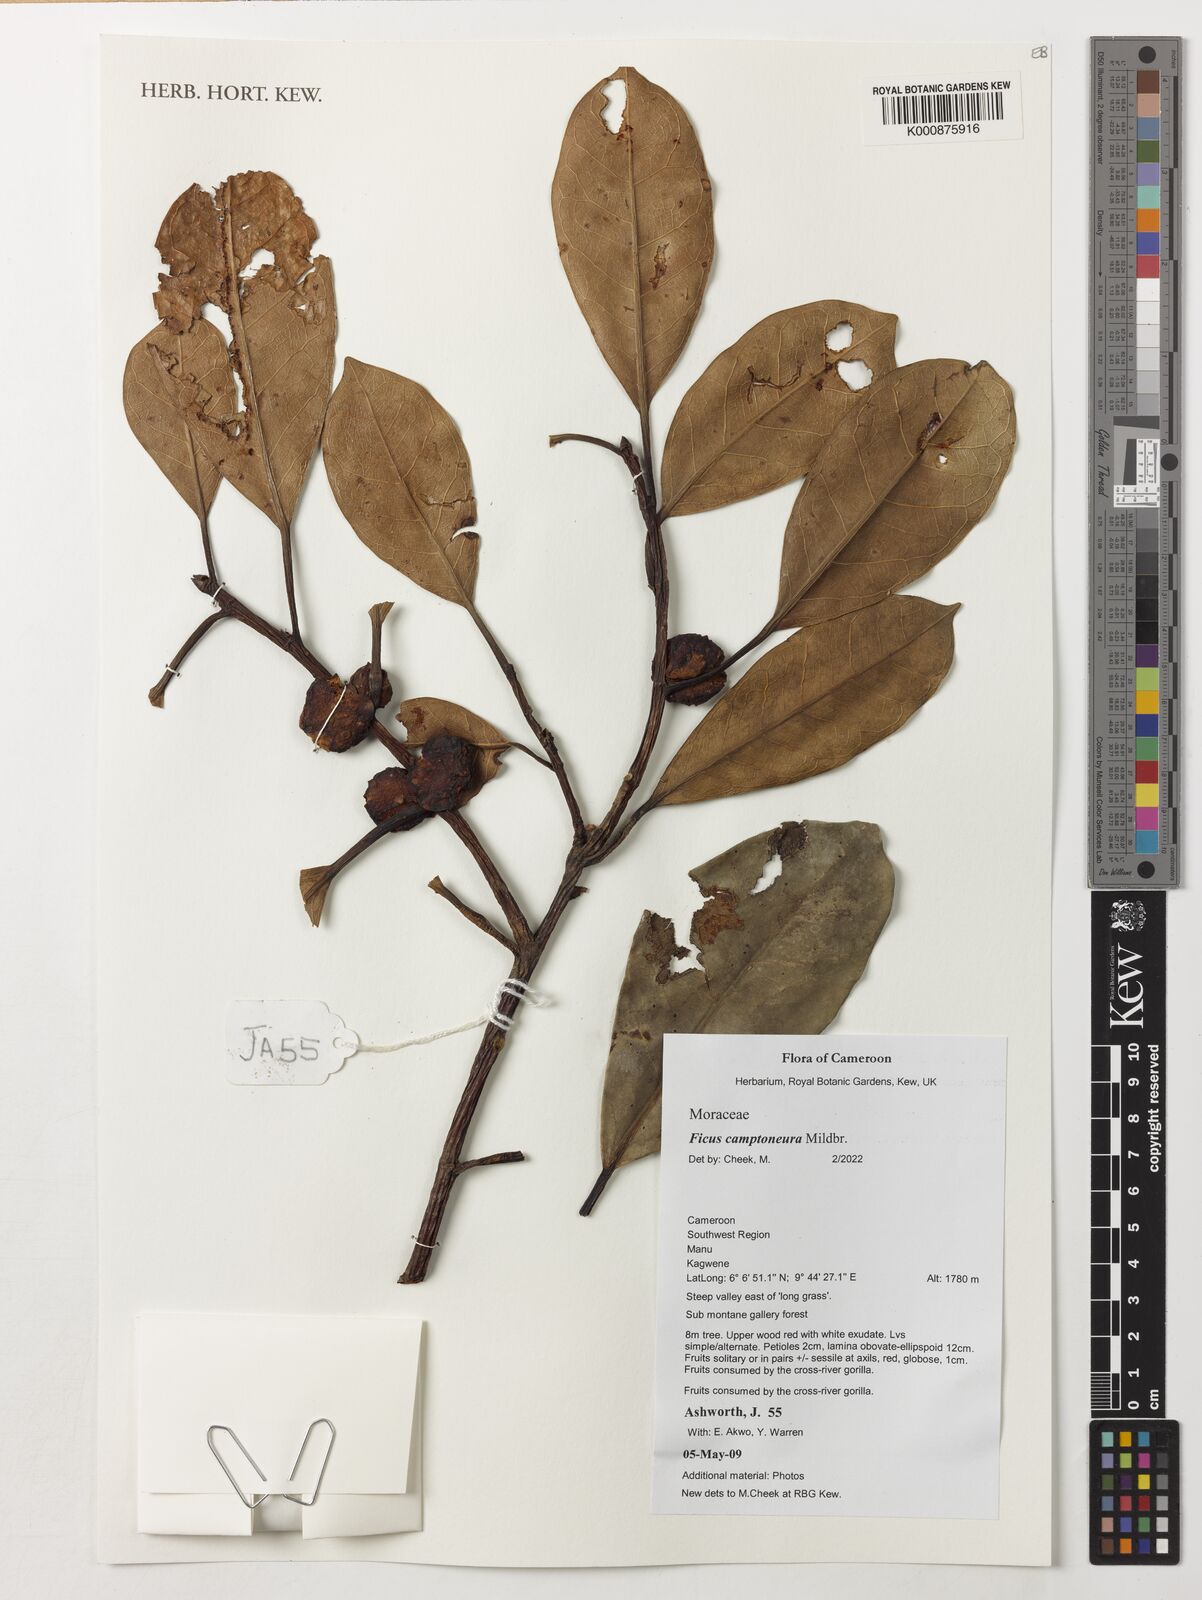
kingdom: Plantae
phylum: Tracheophyta
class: Magnoliopsida
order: Rosales
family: Moraceae
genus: Ficus
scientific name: Ficus ardisioides
